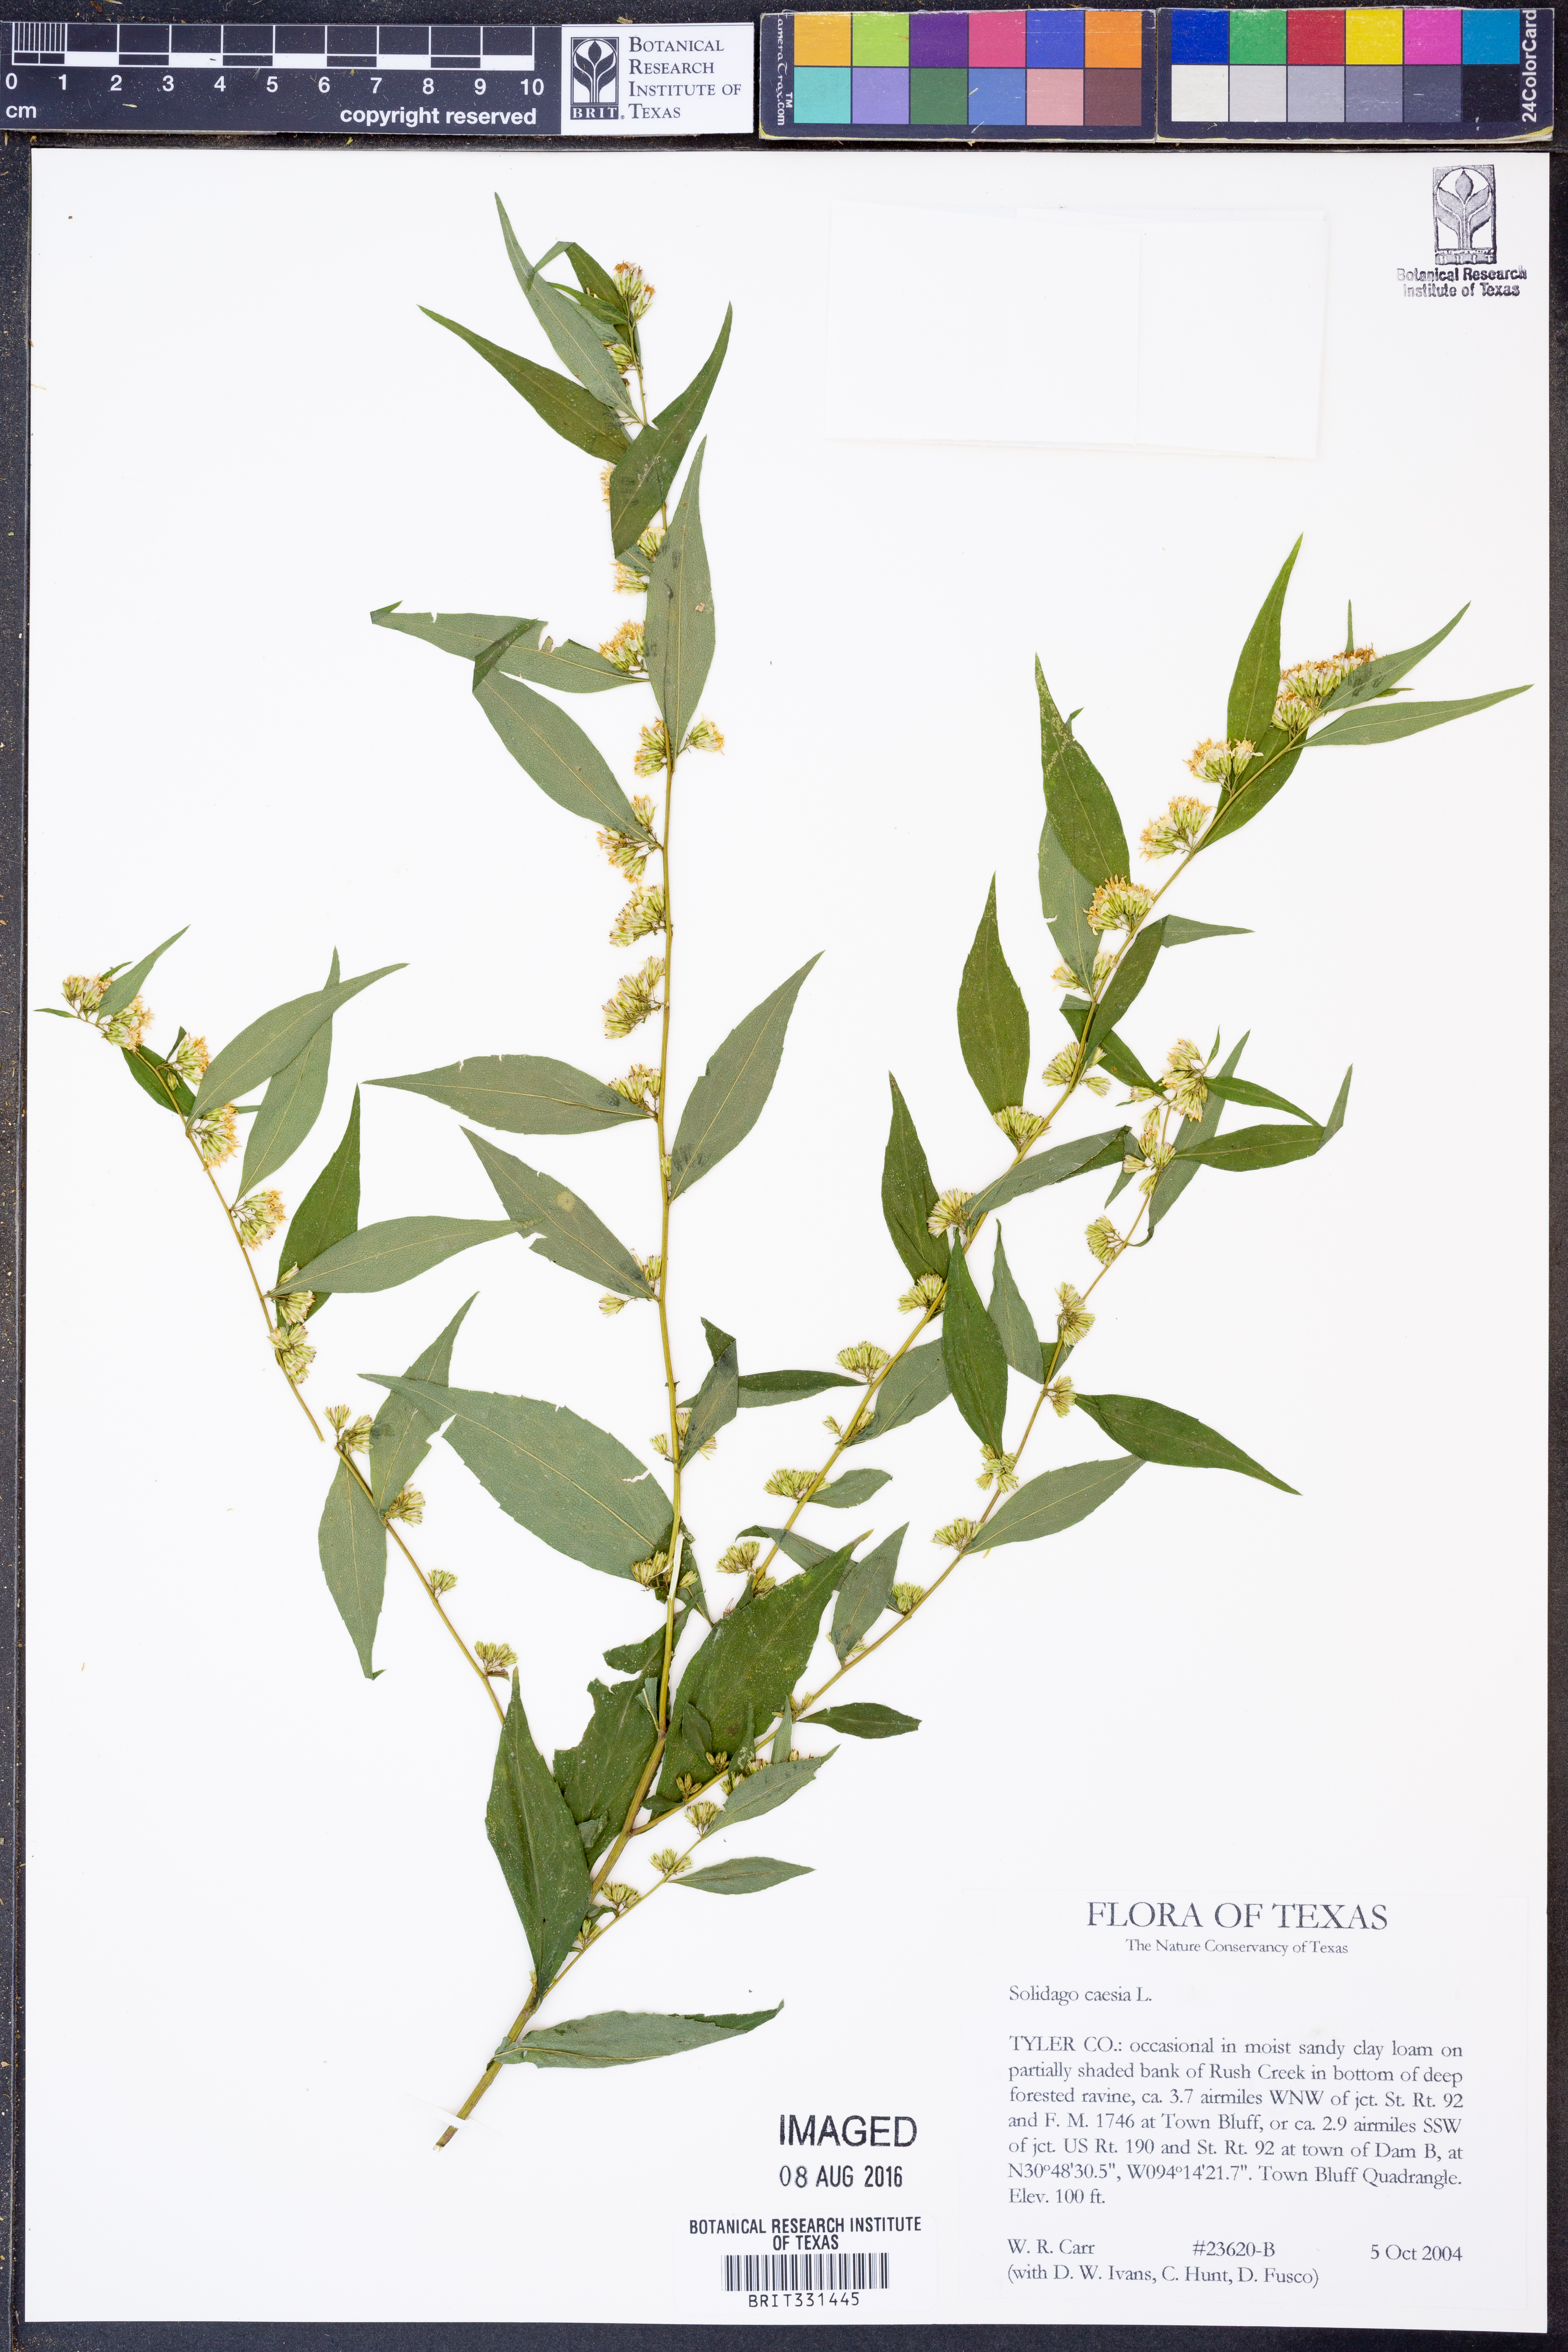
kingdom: Plantae
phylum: Tracheophyta
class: Magnoliopsida
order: Asterales
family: Asteraceae
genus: Solidago
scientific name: Solidago caesia
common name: Woodland goldenrod
